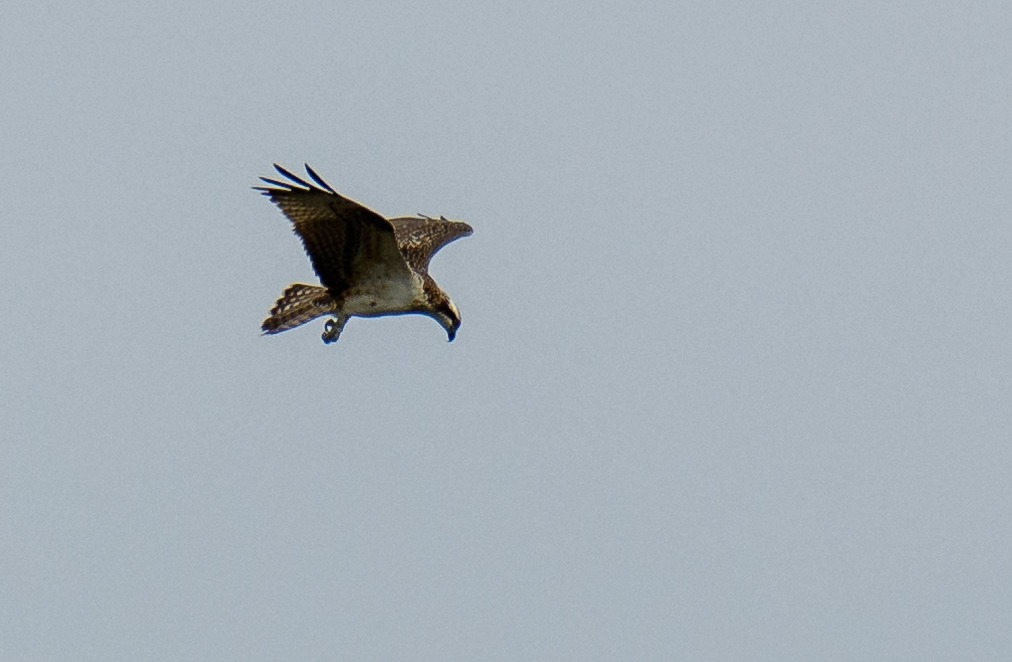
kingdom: Animalia
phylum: Chordata
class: Aves
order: Accipitriformes
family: Pandionidae
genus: Pandion
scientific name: Pandion haliaetus
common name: Fiskeørn
